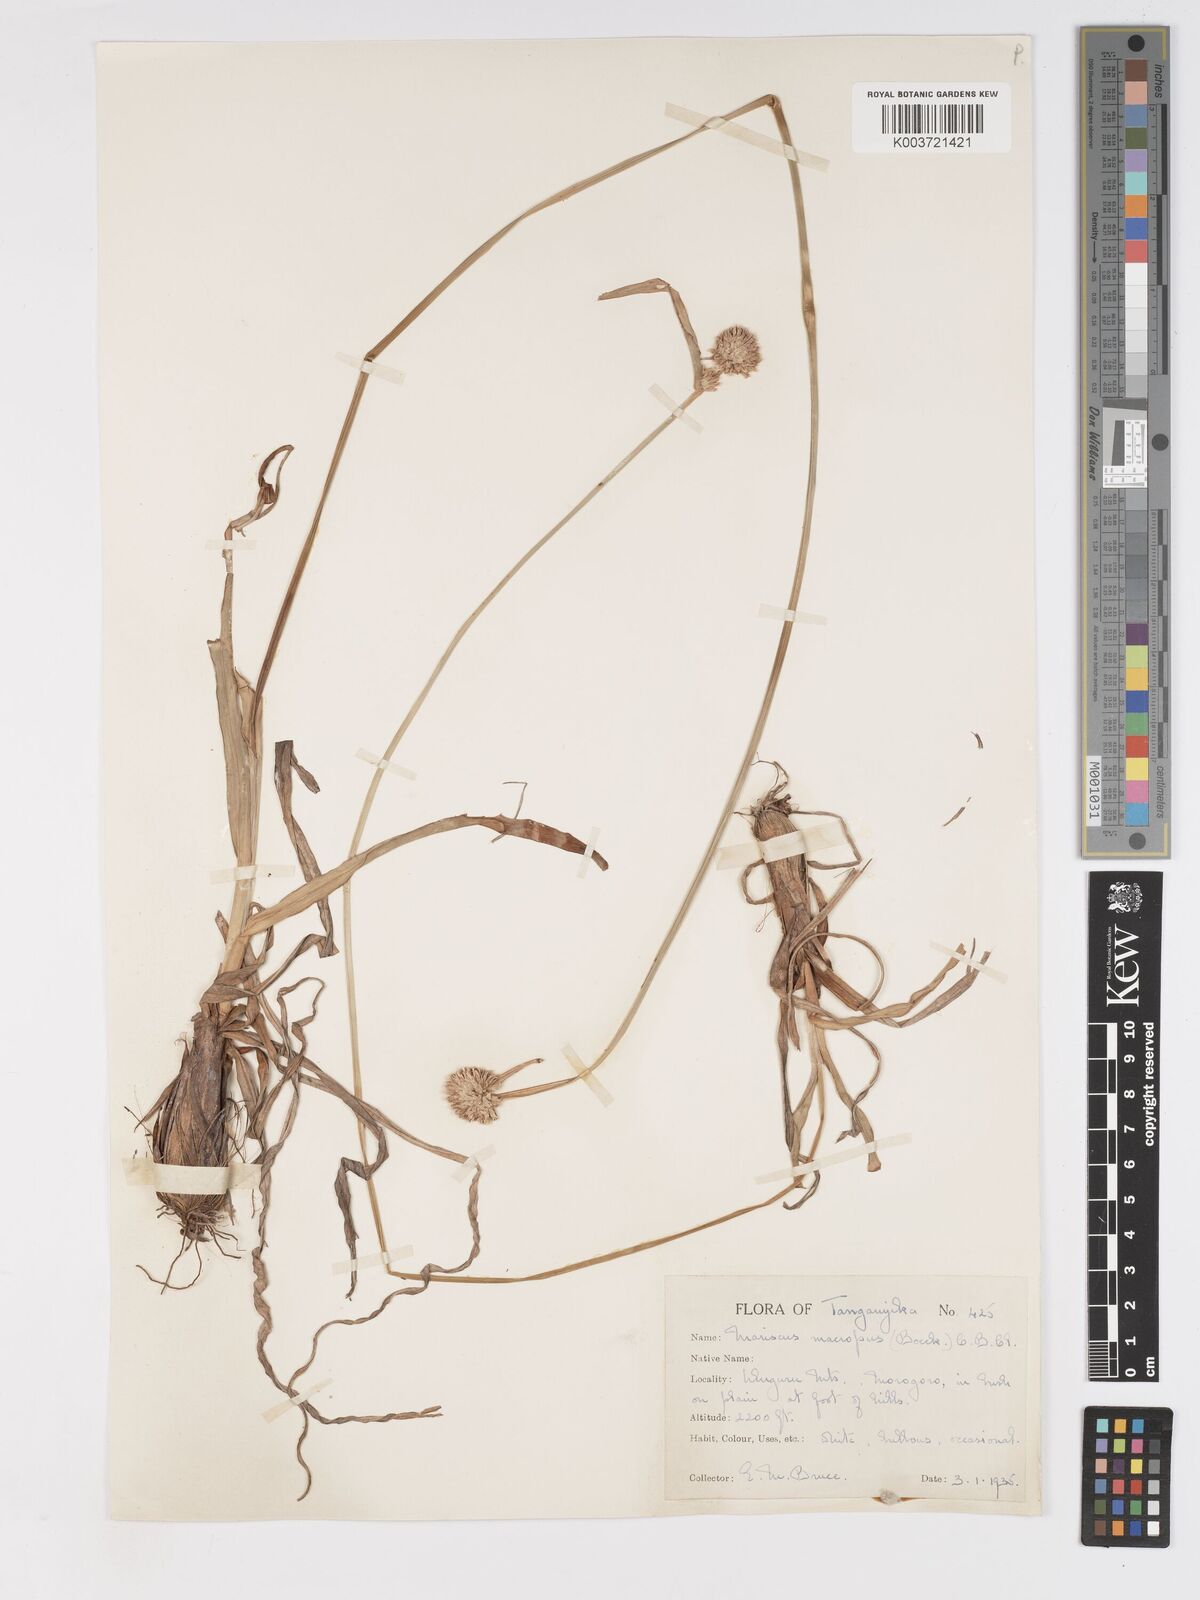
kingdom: Plantae
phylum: Tracheophyta
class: Liliopsida
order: Poales
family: Cyperaceae
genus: Cyperus
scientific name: Cyperus mollipes
